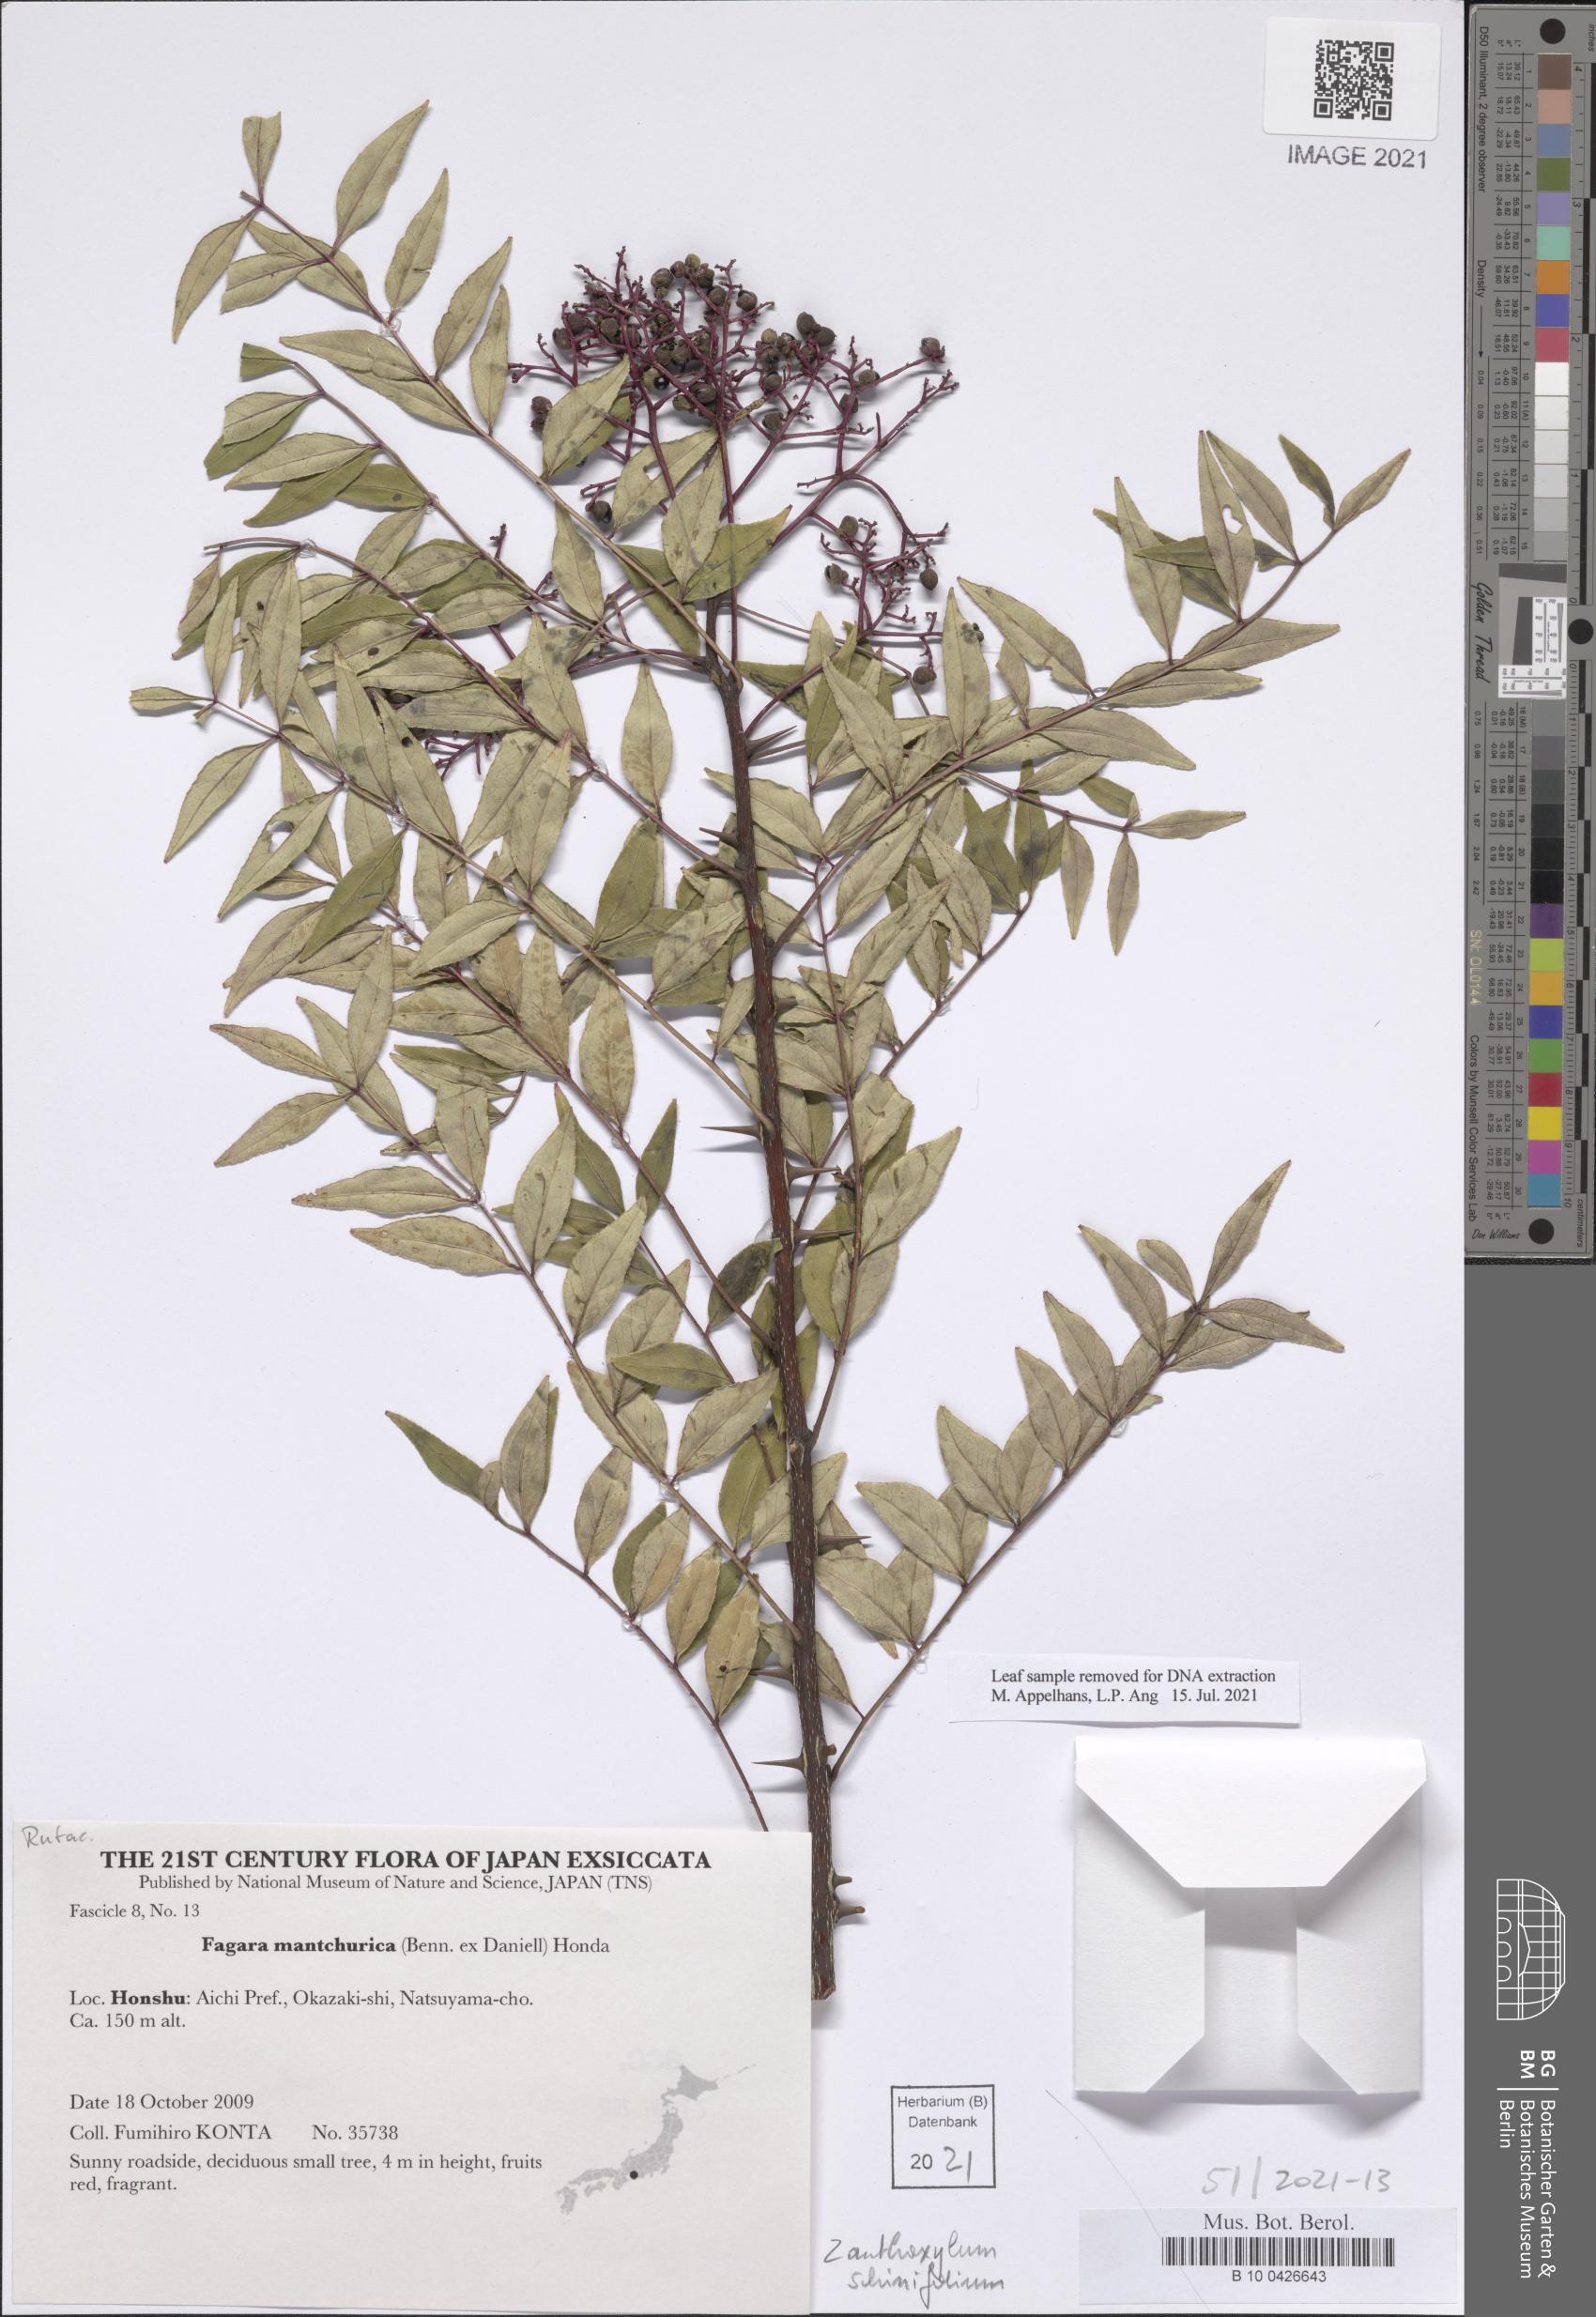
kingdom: Plantae
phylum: Tracheophyta
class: Magnoliopsida
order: Sapindales
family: Rutaceae
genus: Zanthoxylum
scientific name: Zanthoxylum schinifolium
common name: Sichuan-pepper
